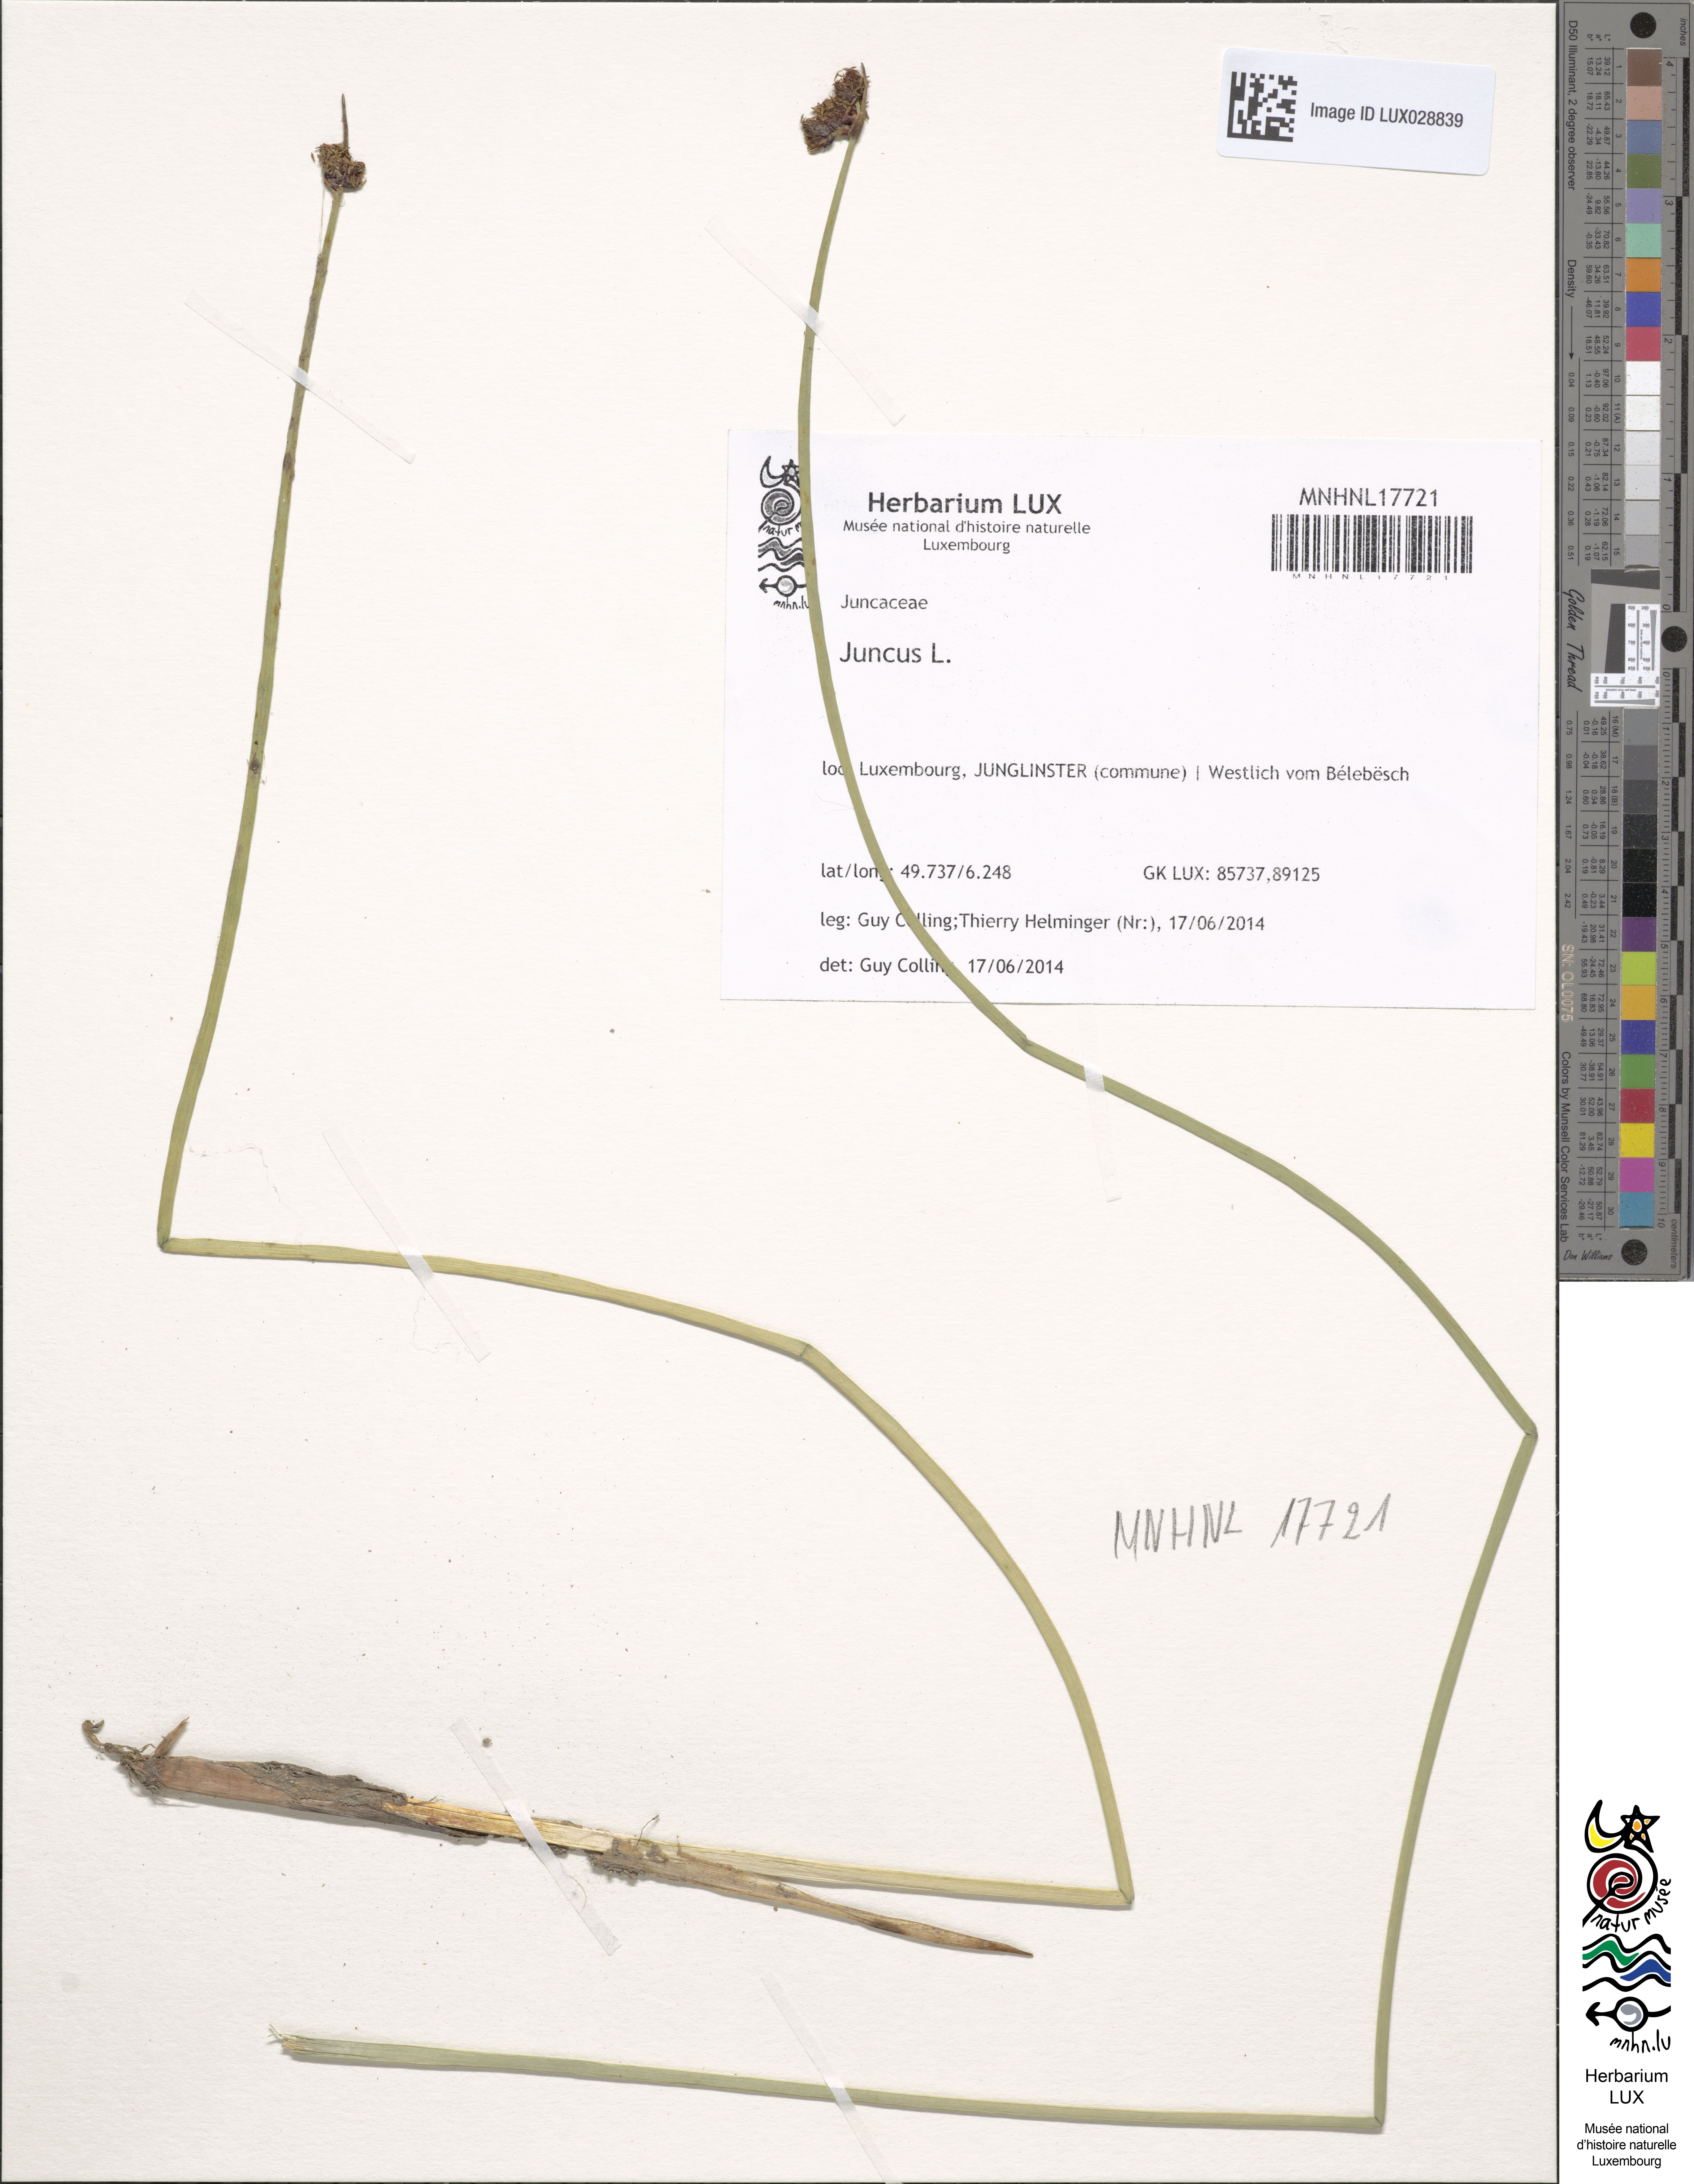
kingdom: Plantae
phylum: Tracheophyta
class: Liliopsida
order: Poales
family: Juncaceae
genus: Juncus
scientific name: Juncus
